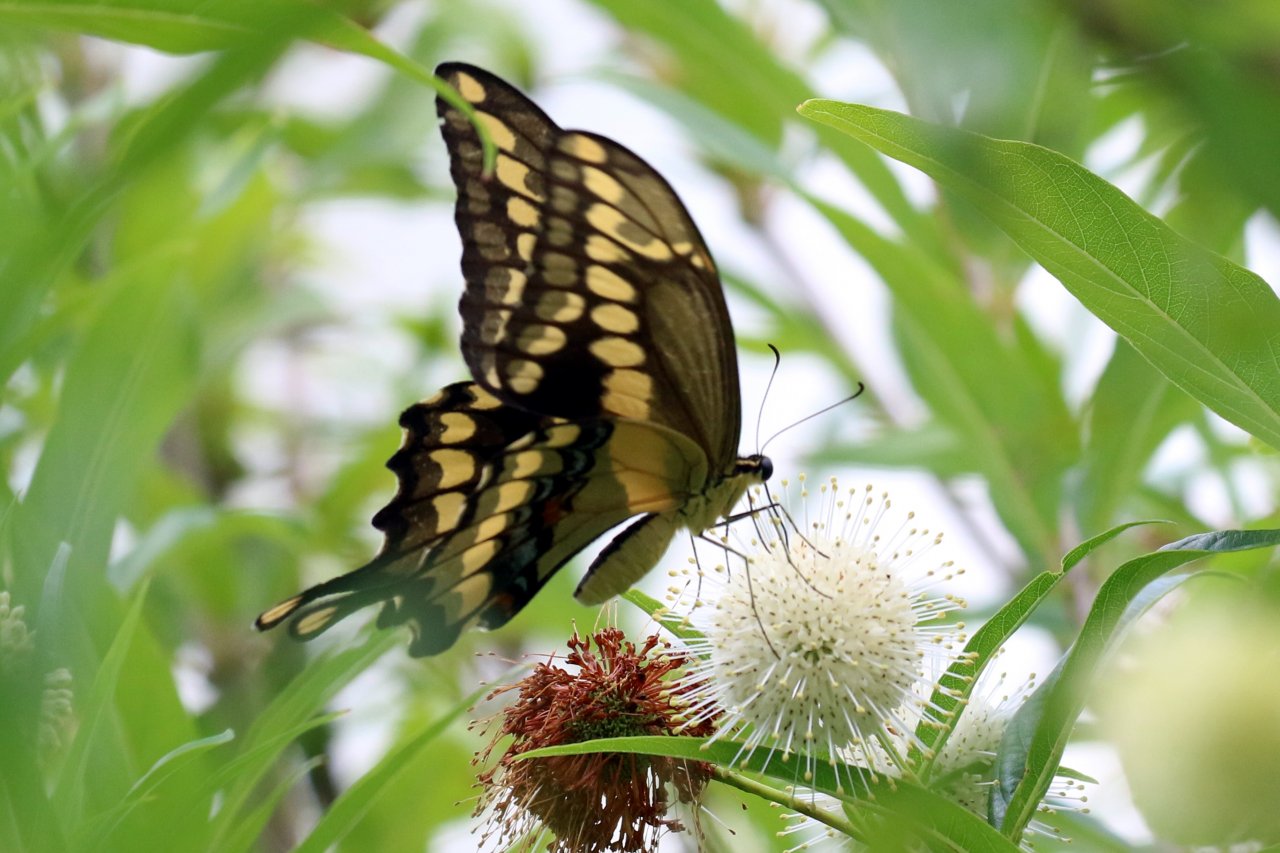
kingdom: Animalia
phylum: Arthropoda
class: Insecta
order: Lepidoptera
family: Papilionidae
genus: Papilio
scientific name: Papilio rumiko
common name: Western Giant Swallowtail
